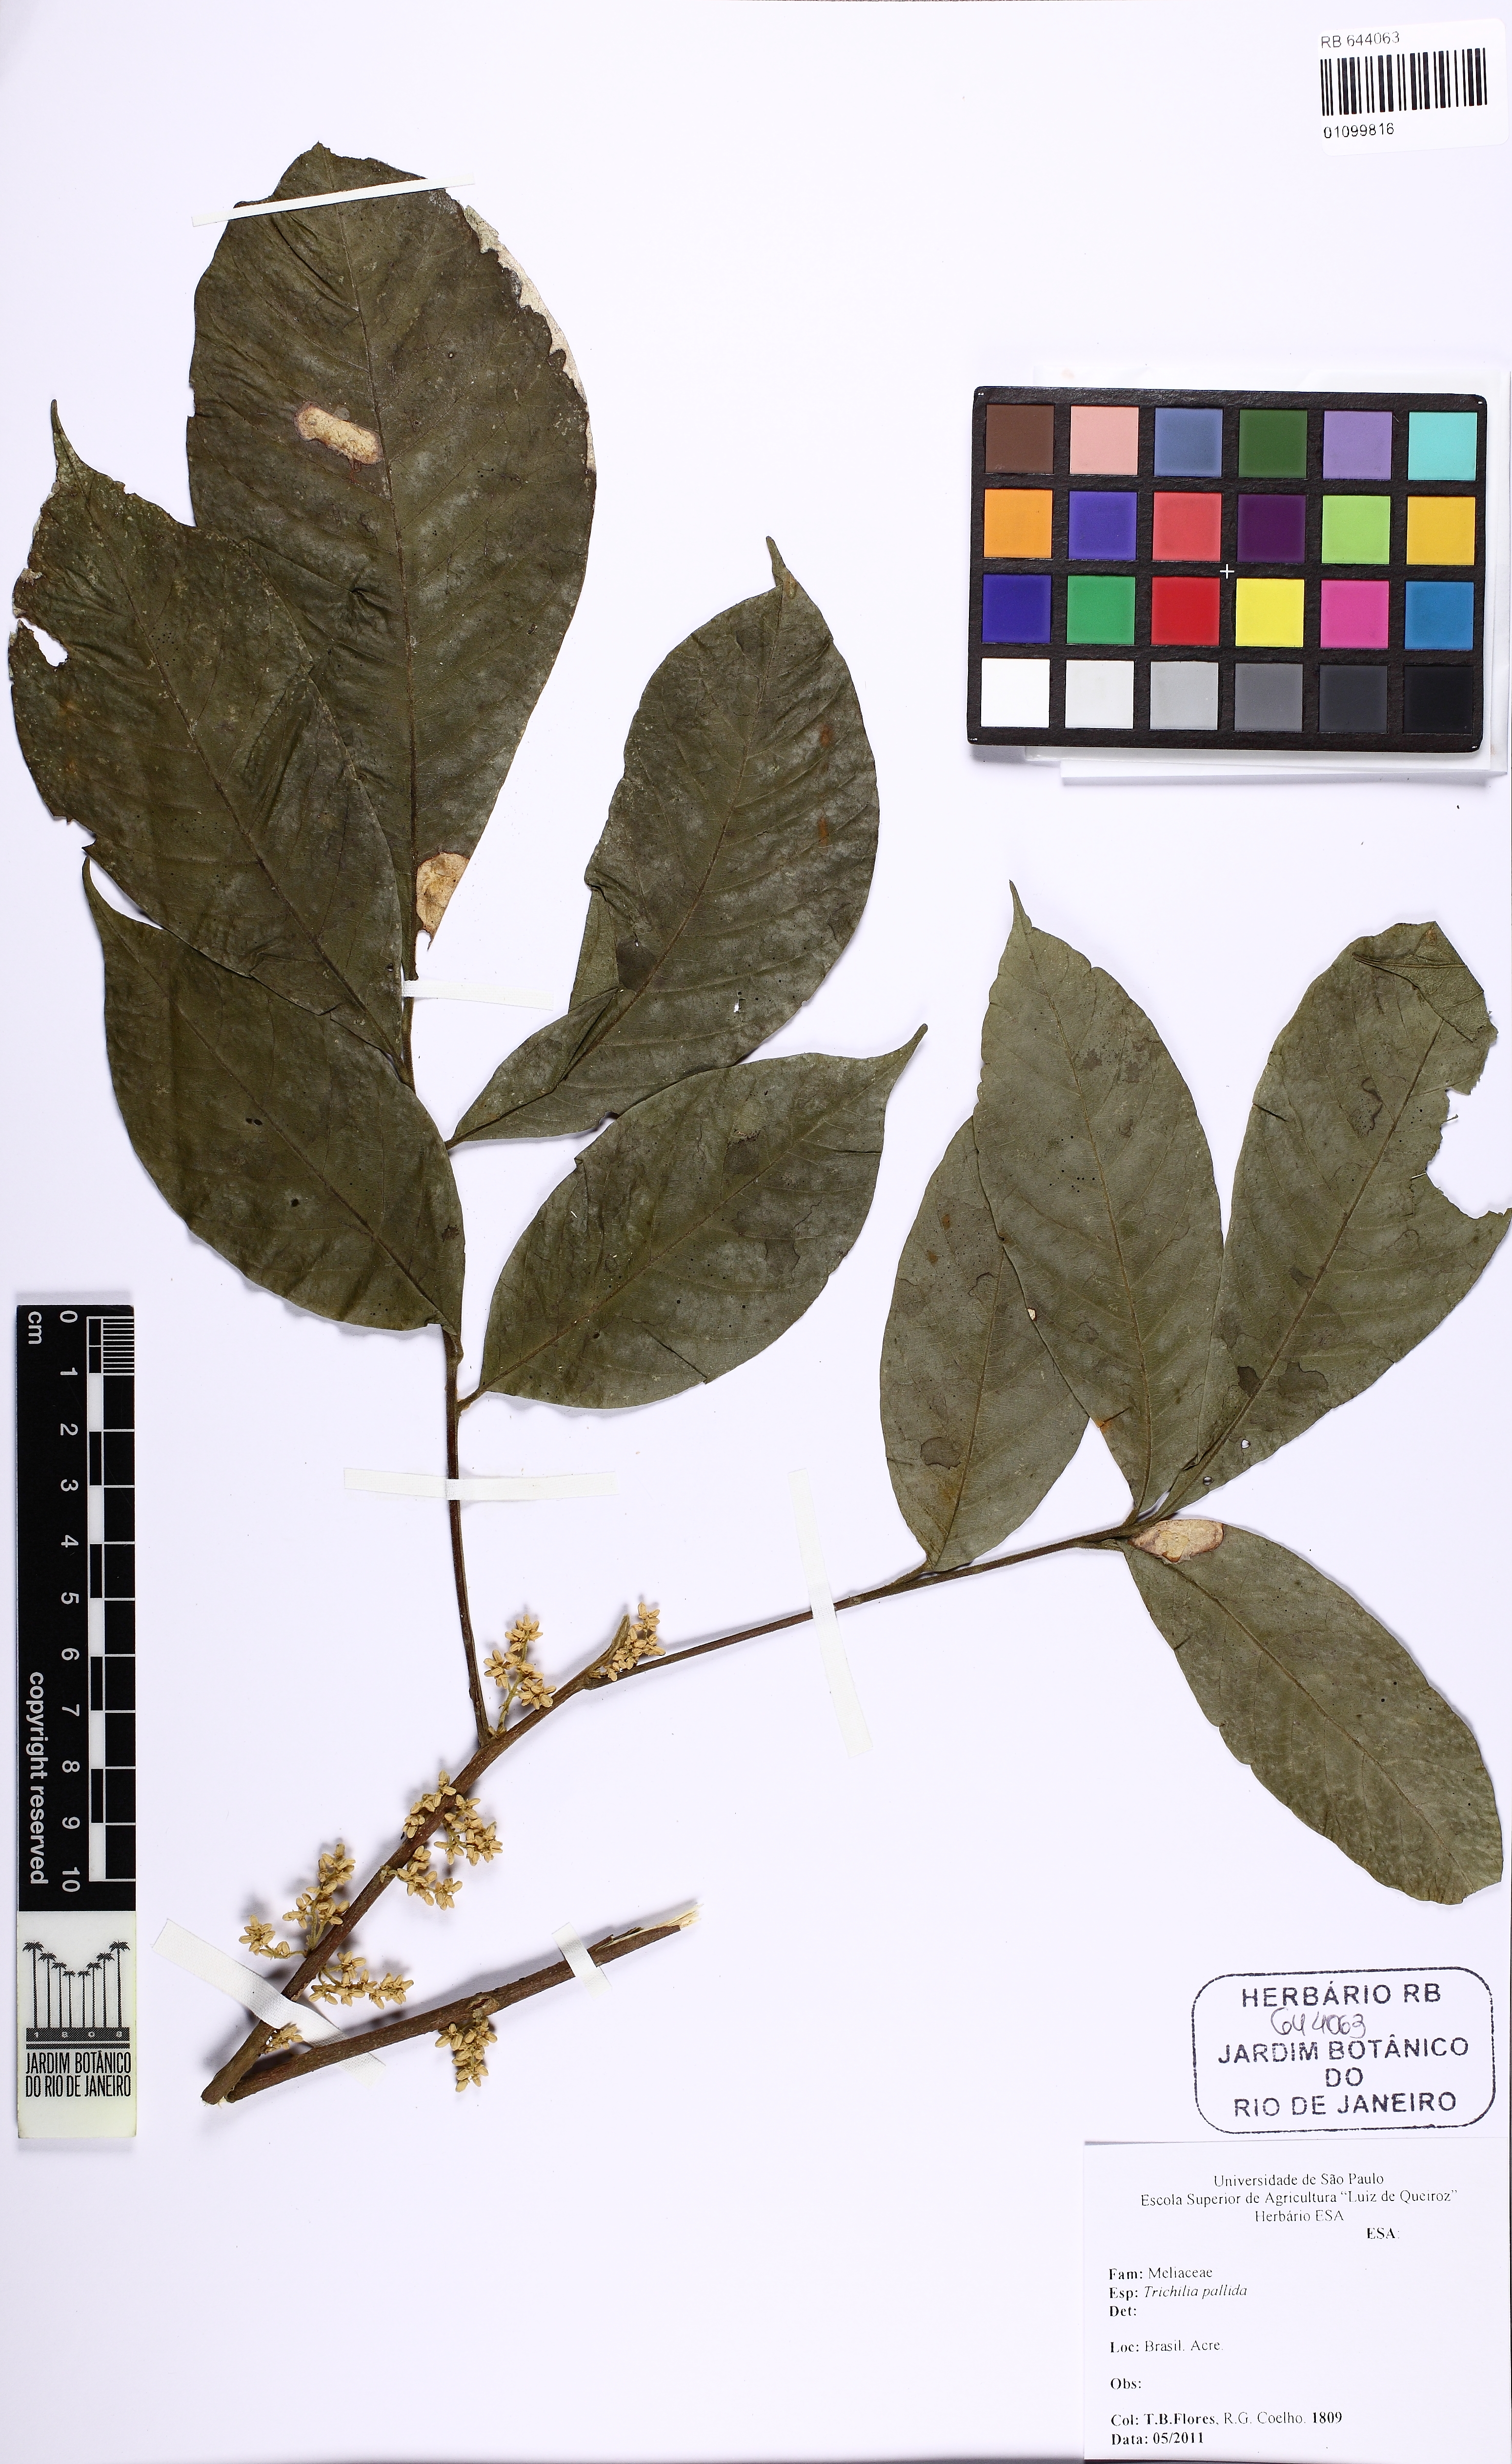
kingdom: Plantae
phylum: Tracheophyta
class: Magnoliopsida
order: Sapindales
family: Meliaceae
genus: Trichilia
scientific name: Trichilia pallida
